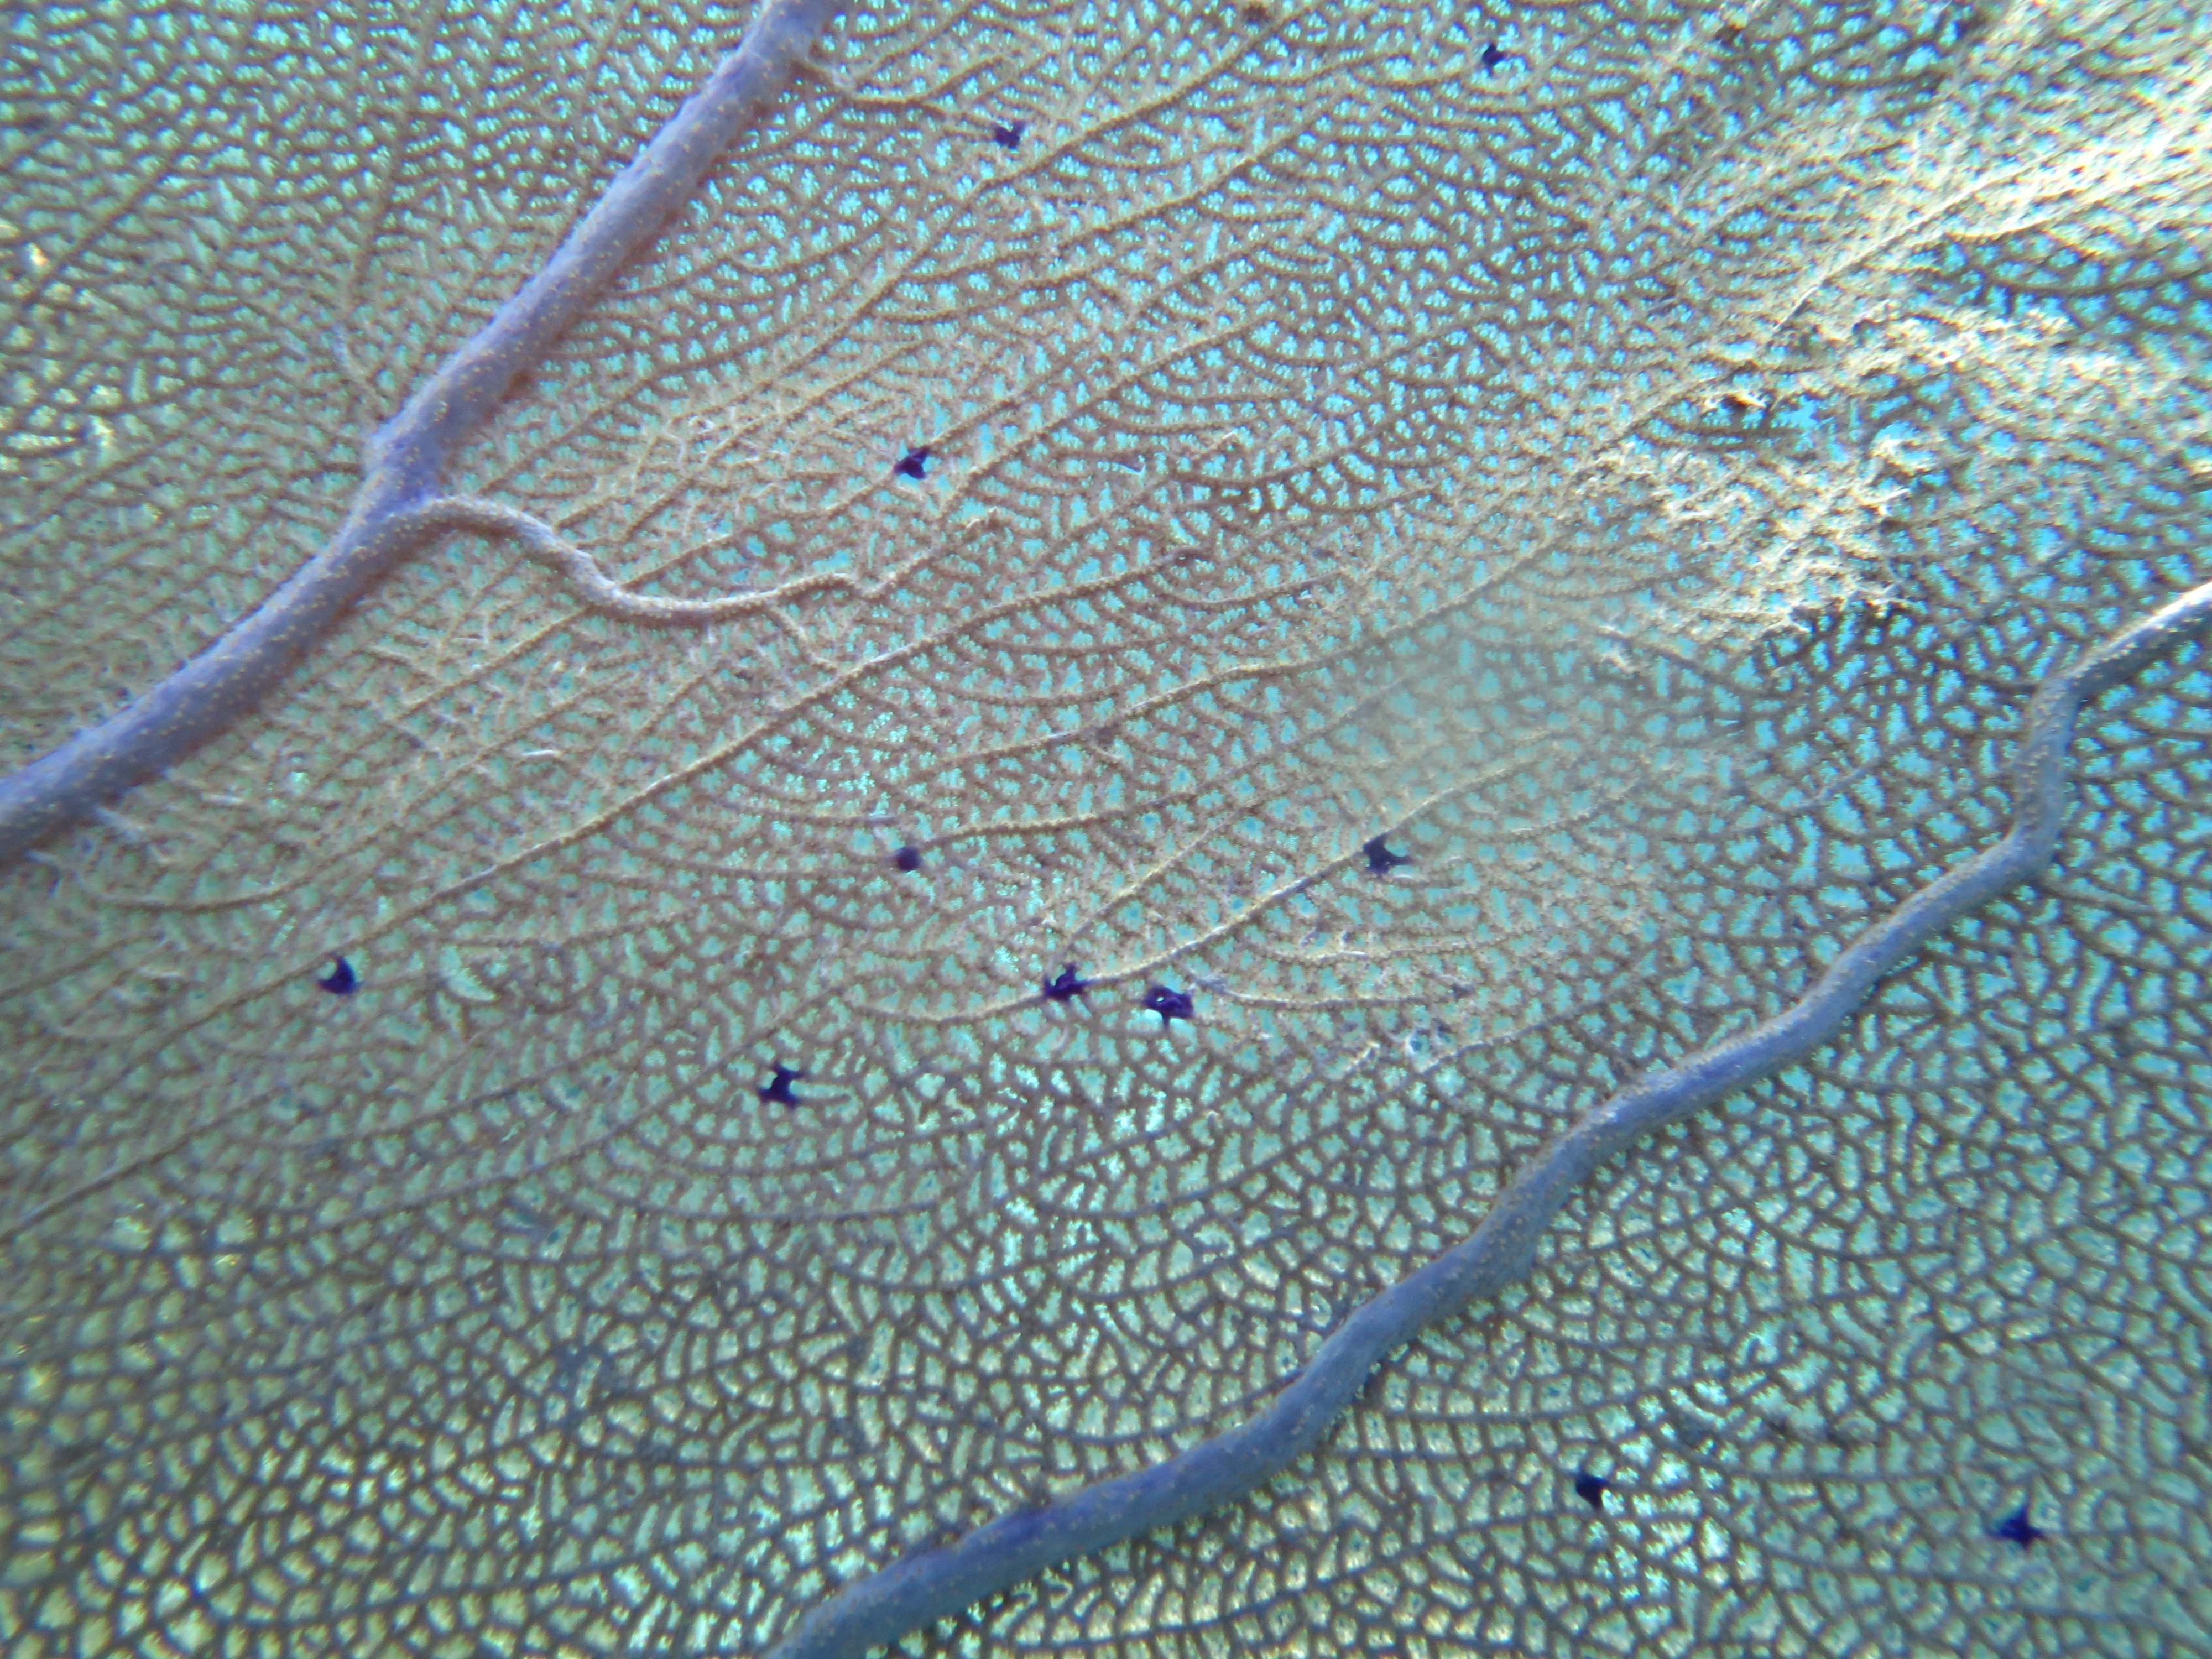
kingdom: Animalia
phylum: Cnidaria
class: Anthozoa
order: Malacalcyonacea
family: Gorgoniidae
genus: Gorgonia
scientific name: Gorgonia ventalina
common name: Common sea fan
